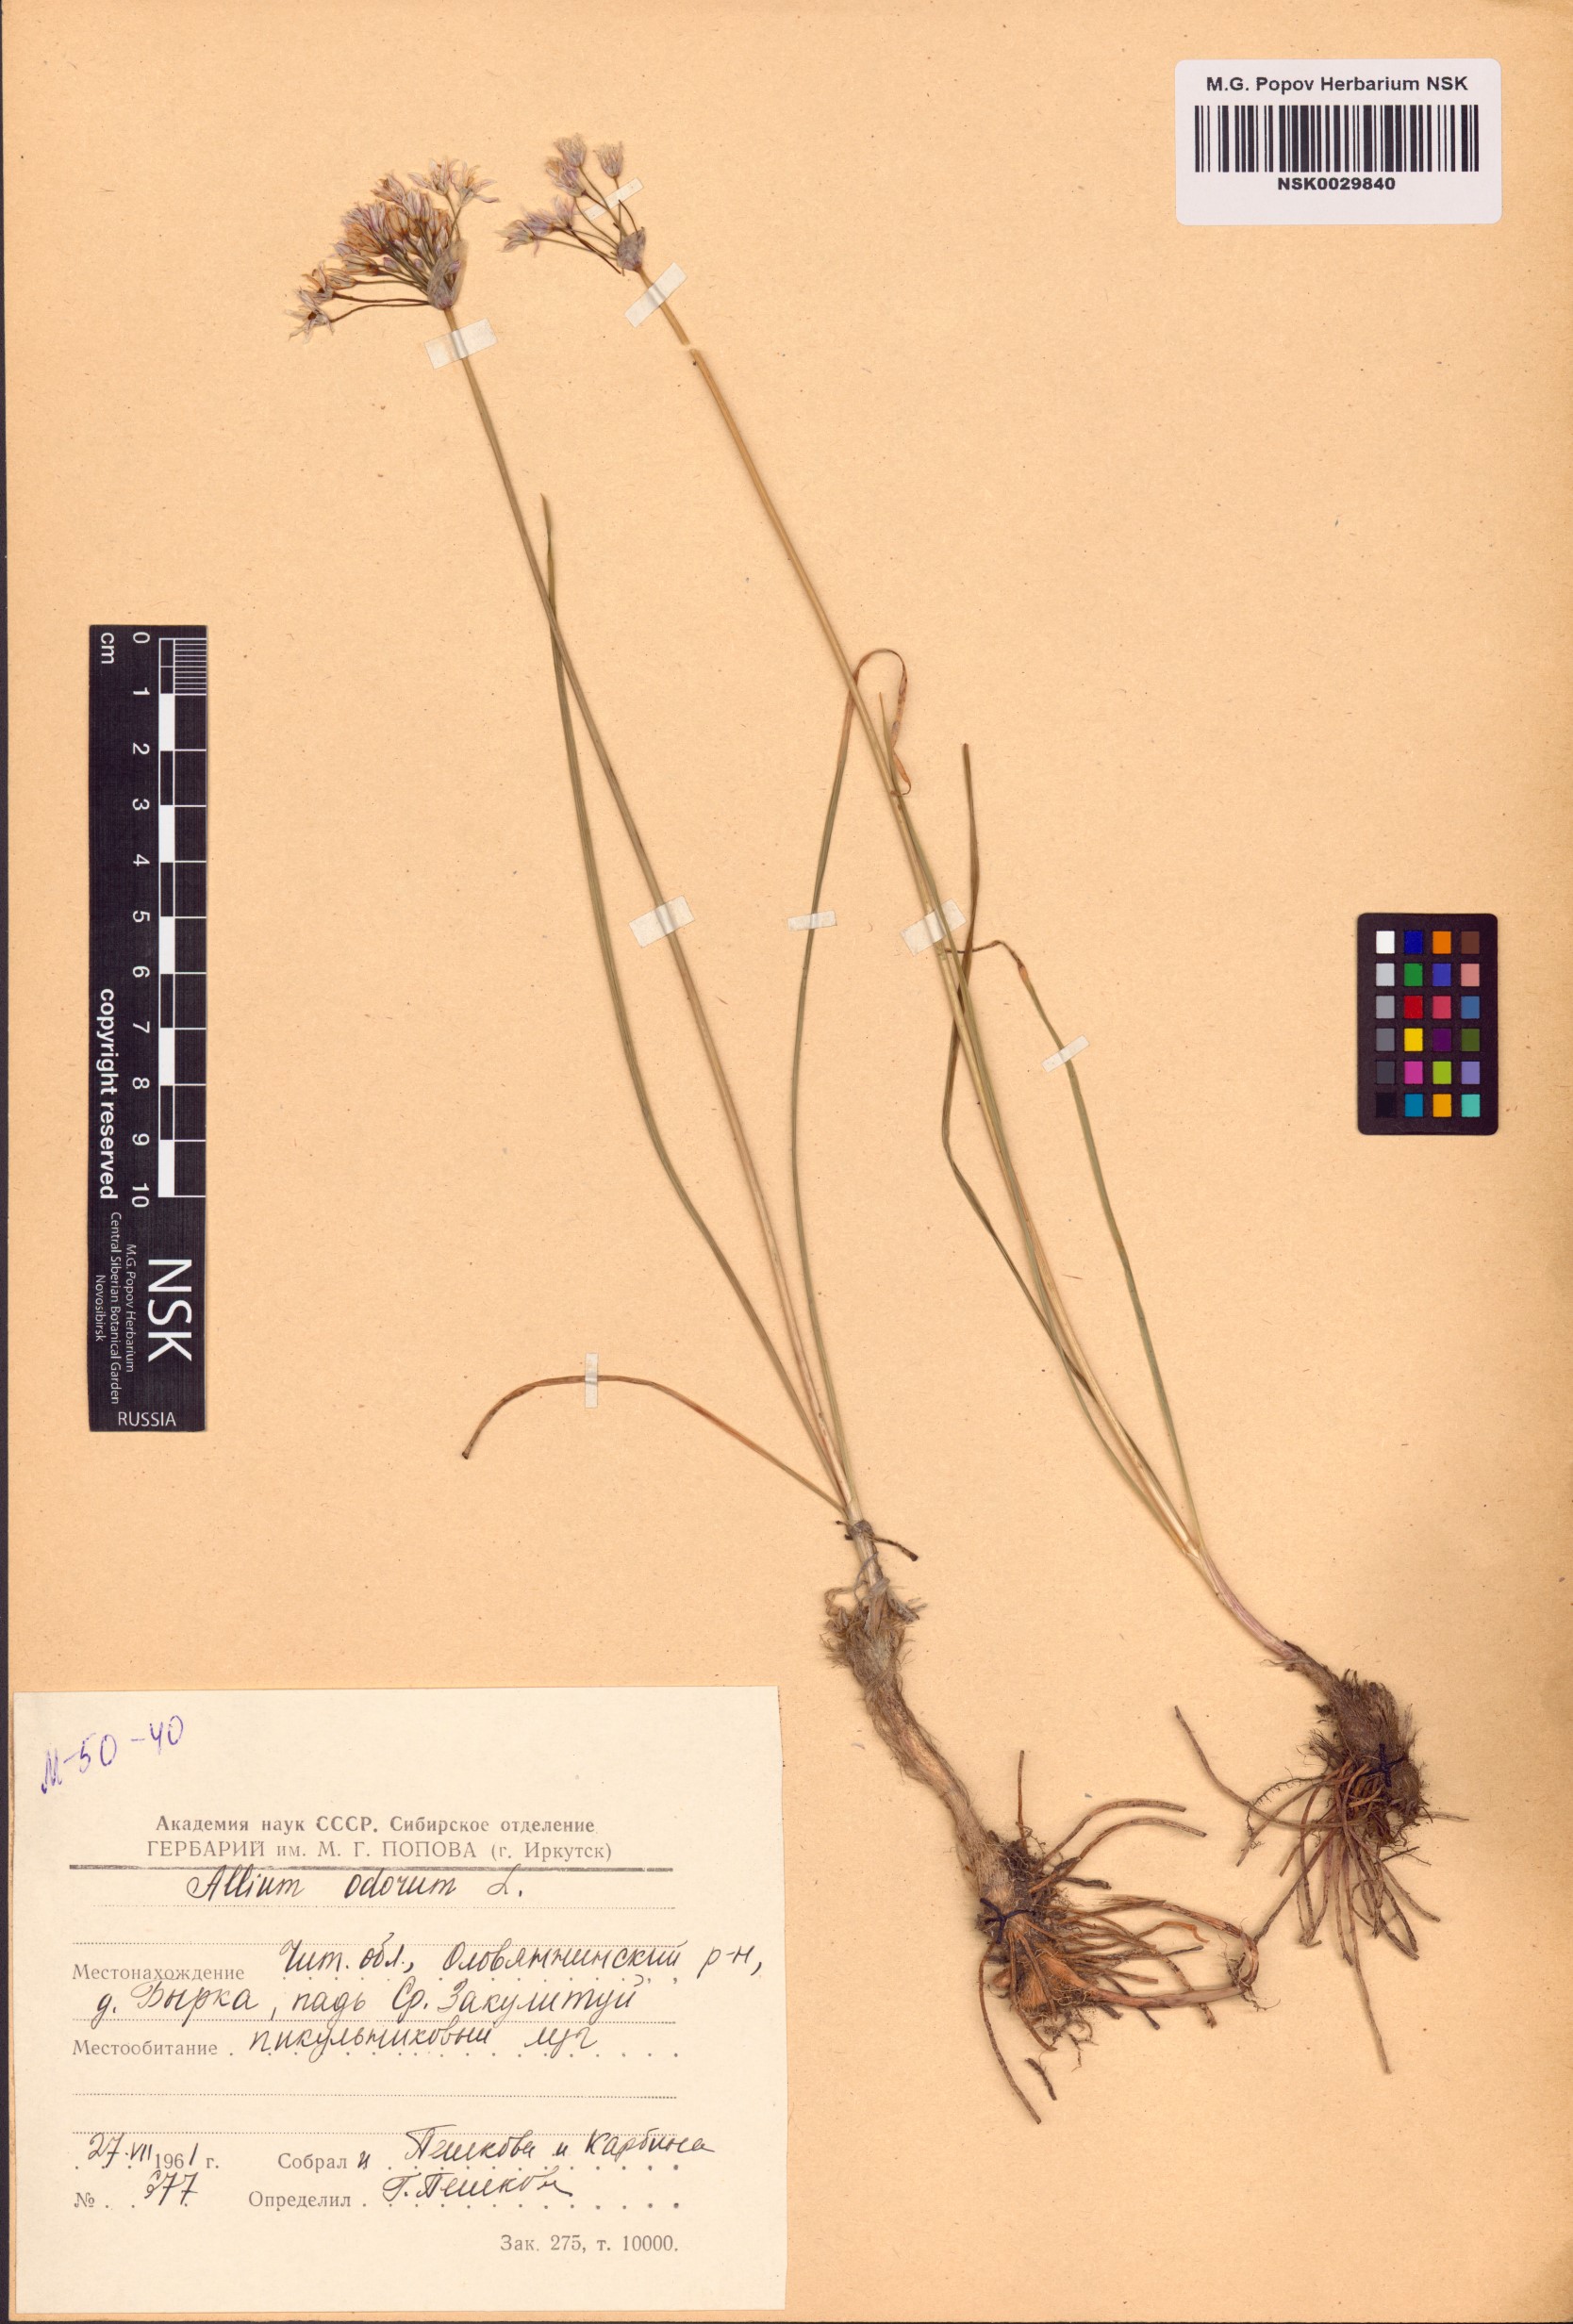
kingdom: Plantae
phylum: Tracheophyta
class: Liliopsida
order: Asparagales
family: Amaryllidaceae
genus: Allium
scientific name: Allium ramosum
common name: Fragrant garlic
